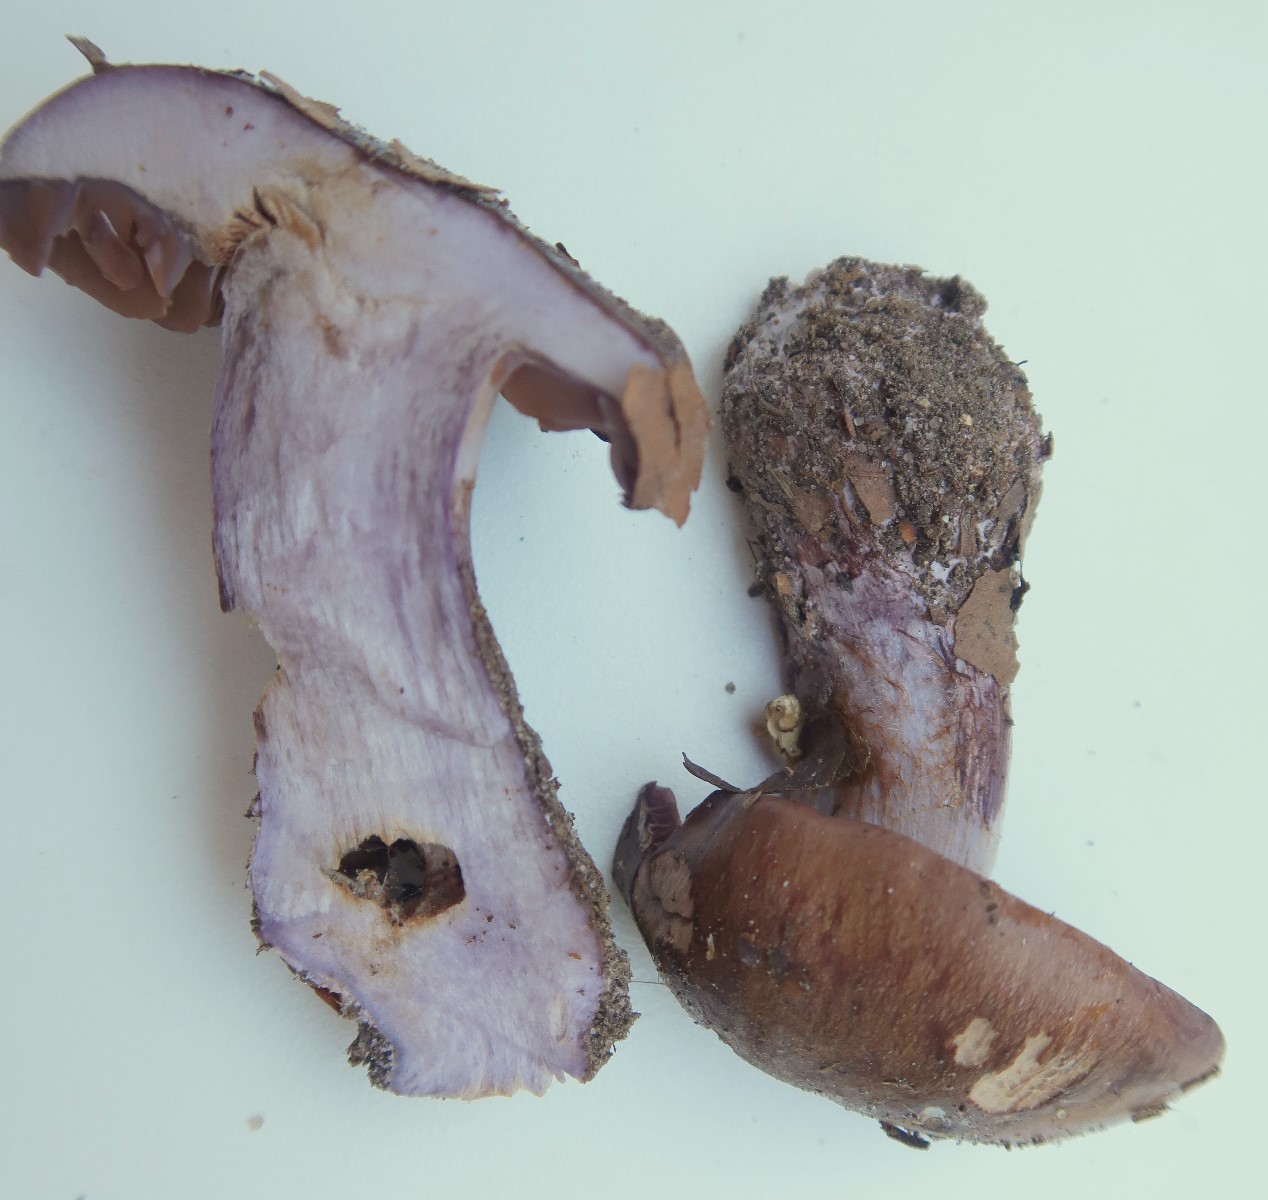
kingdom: Fungi
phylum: Basidiomycota
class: Agaricomycetes
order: Agaricales
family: Cortinariaceae
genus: Thaxterogaster
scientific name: Thaxterogaster collocandoides
